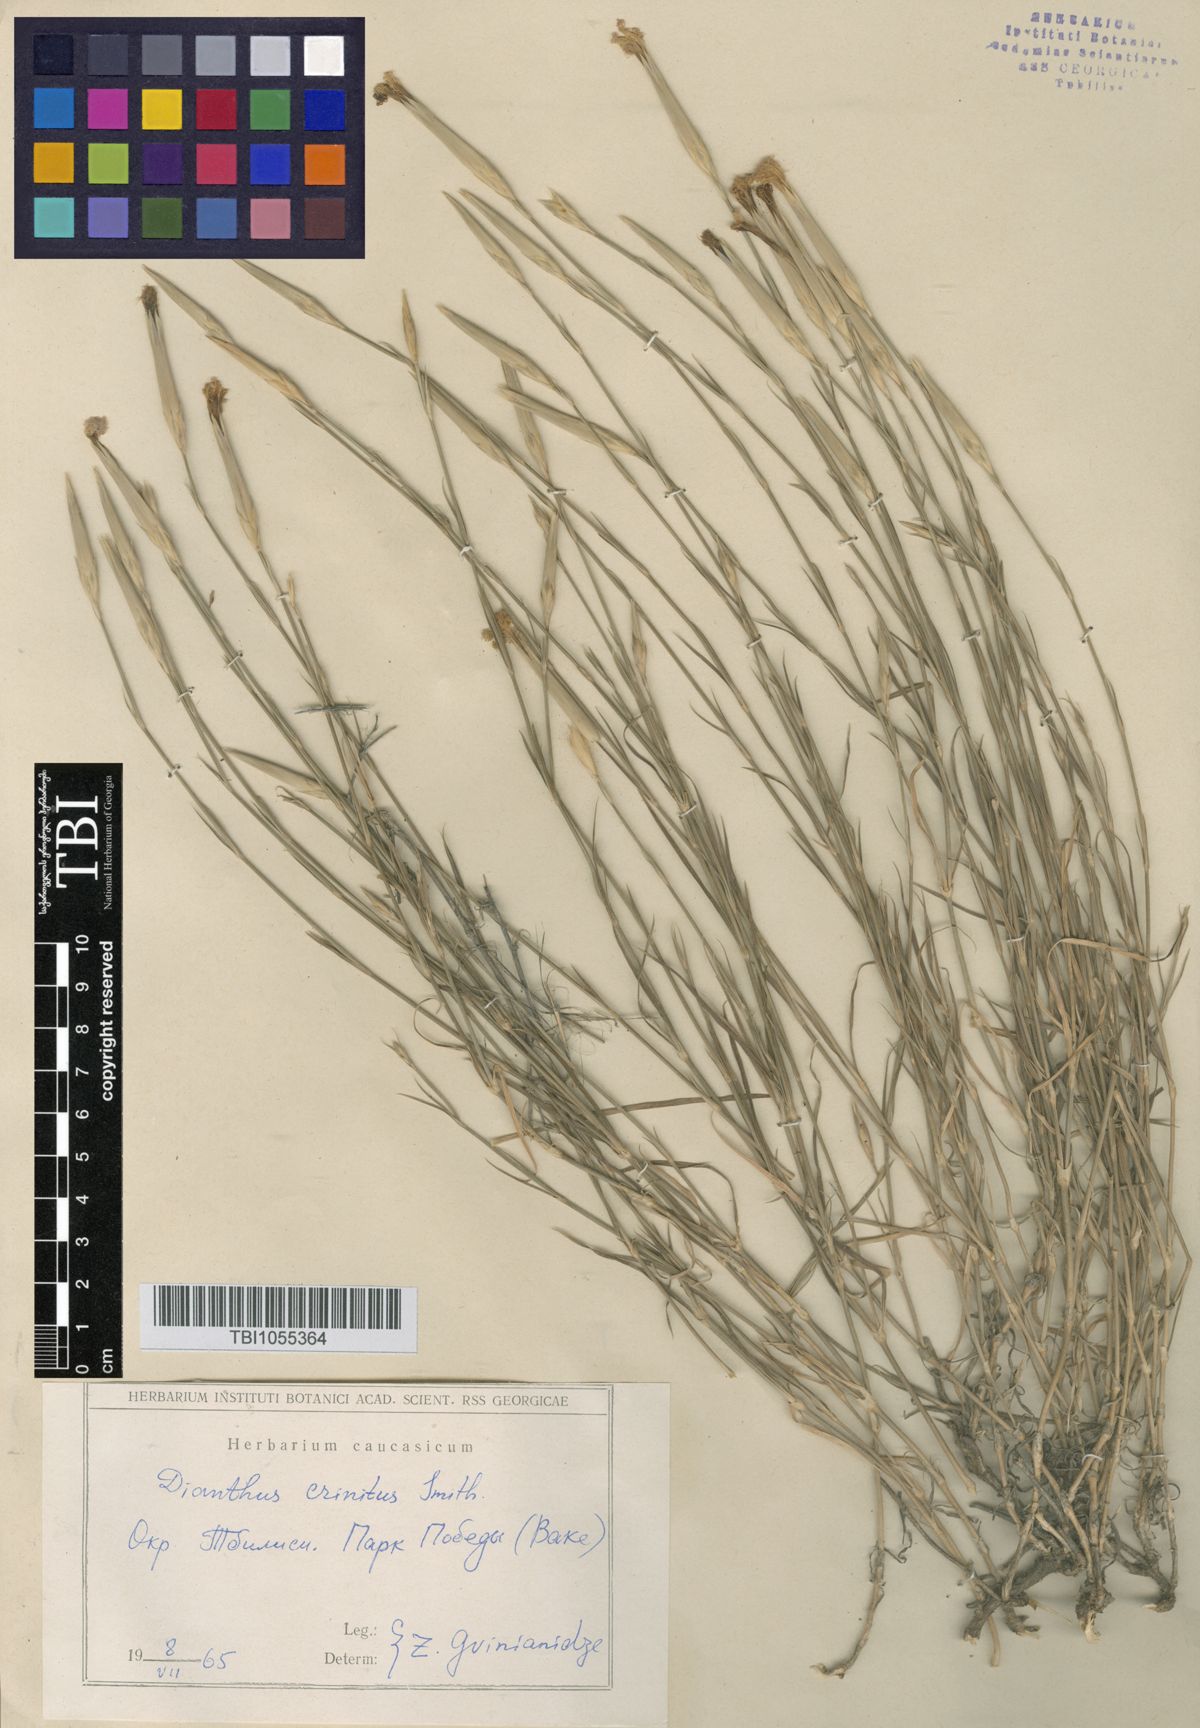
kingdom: Plantae
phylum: Tracheophyta
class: Magnoliopsida
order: Caryophyllales
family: Caryophyllaceae
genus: Dianthus
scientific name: Dianthus crinitus
